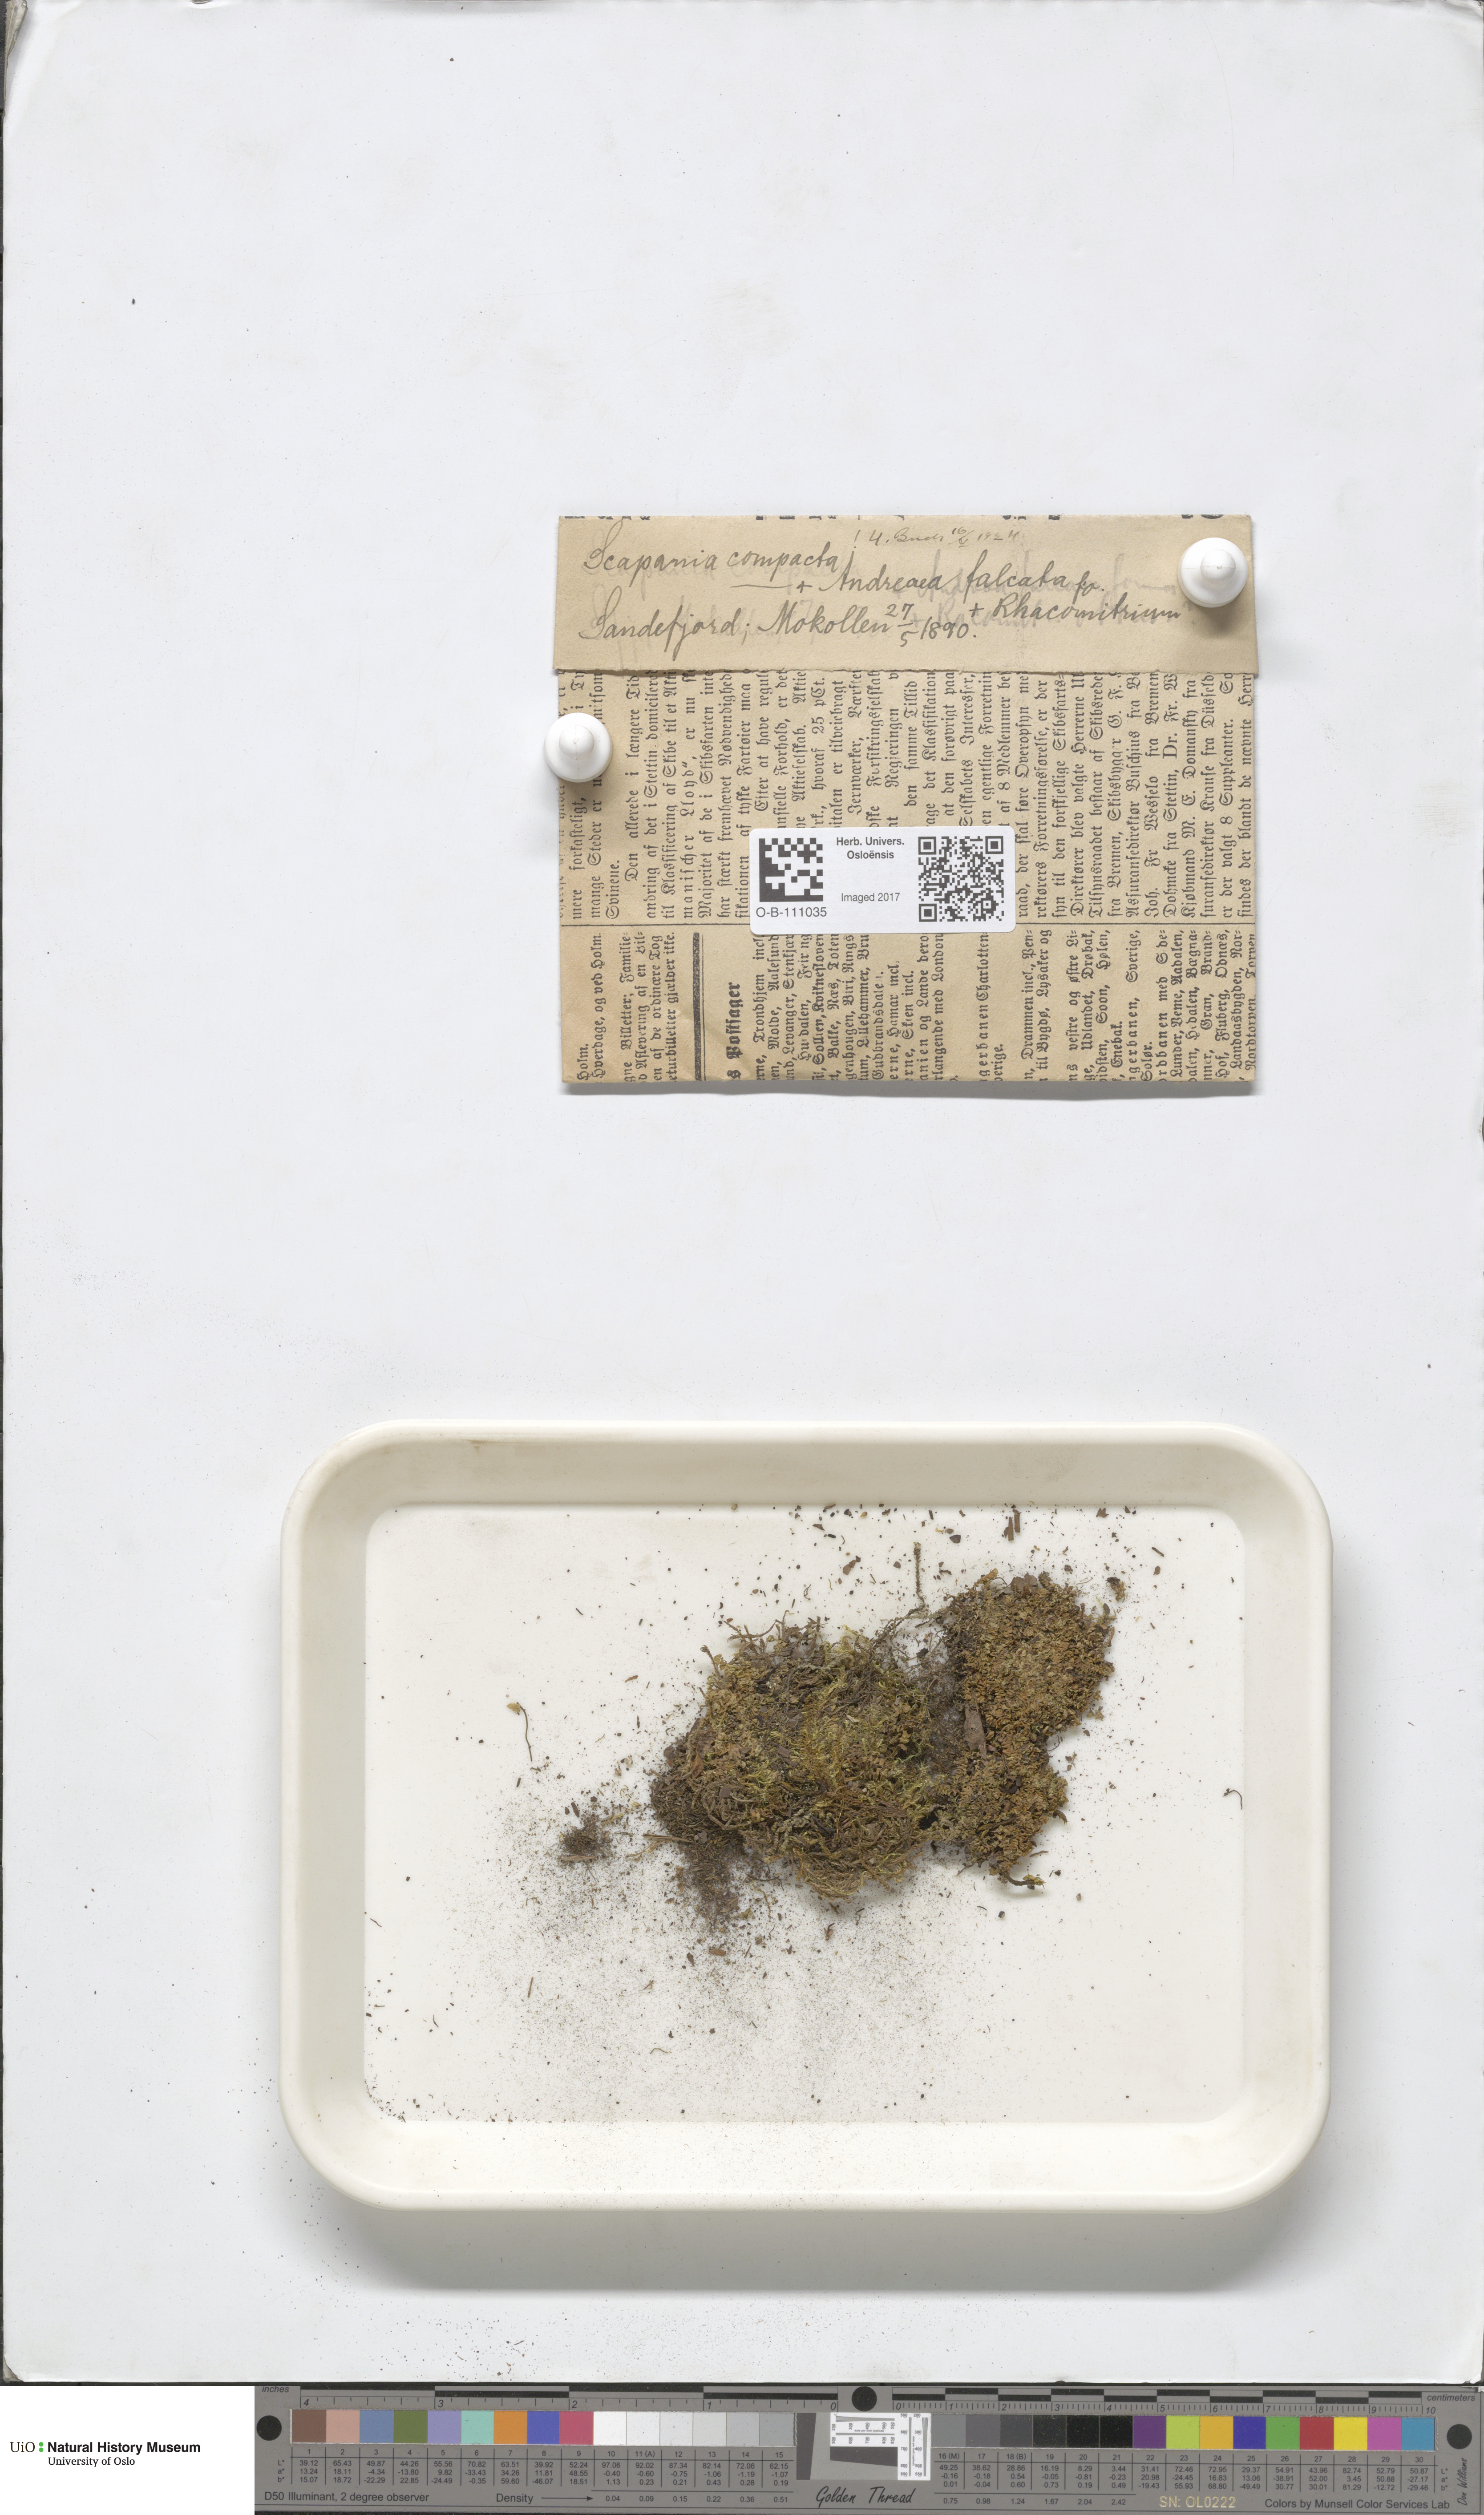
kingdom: Plantae
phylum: Marchantiophyta
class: Jungermanniopsida
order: Jungermanniales
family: Scapaniaceae
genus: Scapania
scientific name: Scapania compacta
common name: Thick-set earwort
